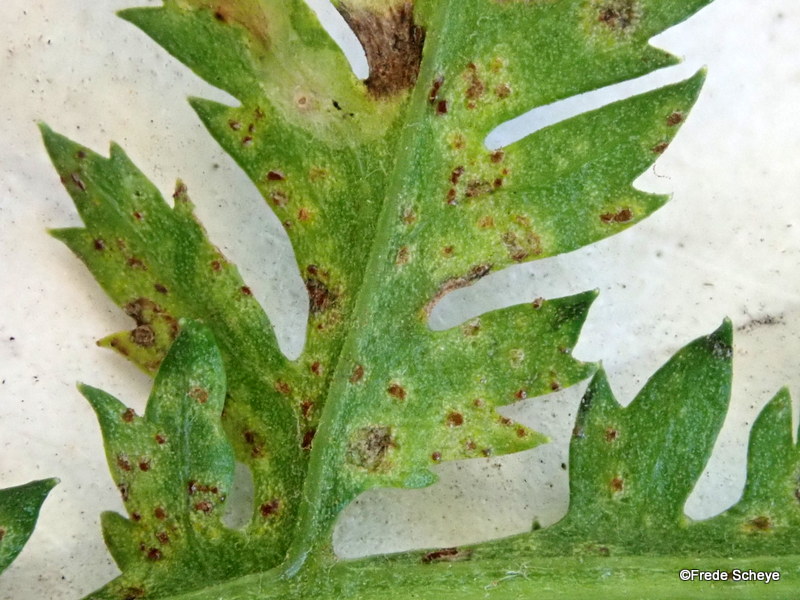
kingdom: Fungi
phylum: Basidiomycota
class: Pucciniomycetes
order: Pucciniales
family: Pucciniaceae
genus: Puccinia
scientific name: Puccinia tanaceti
